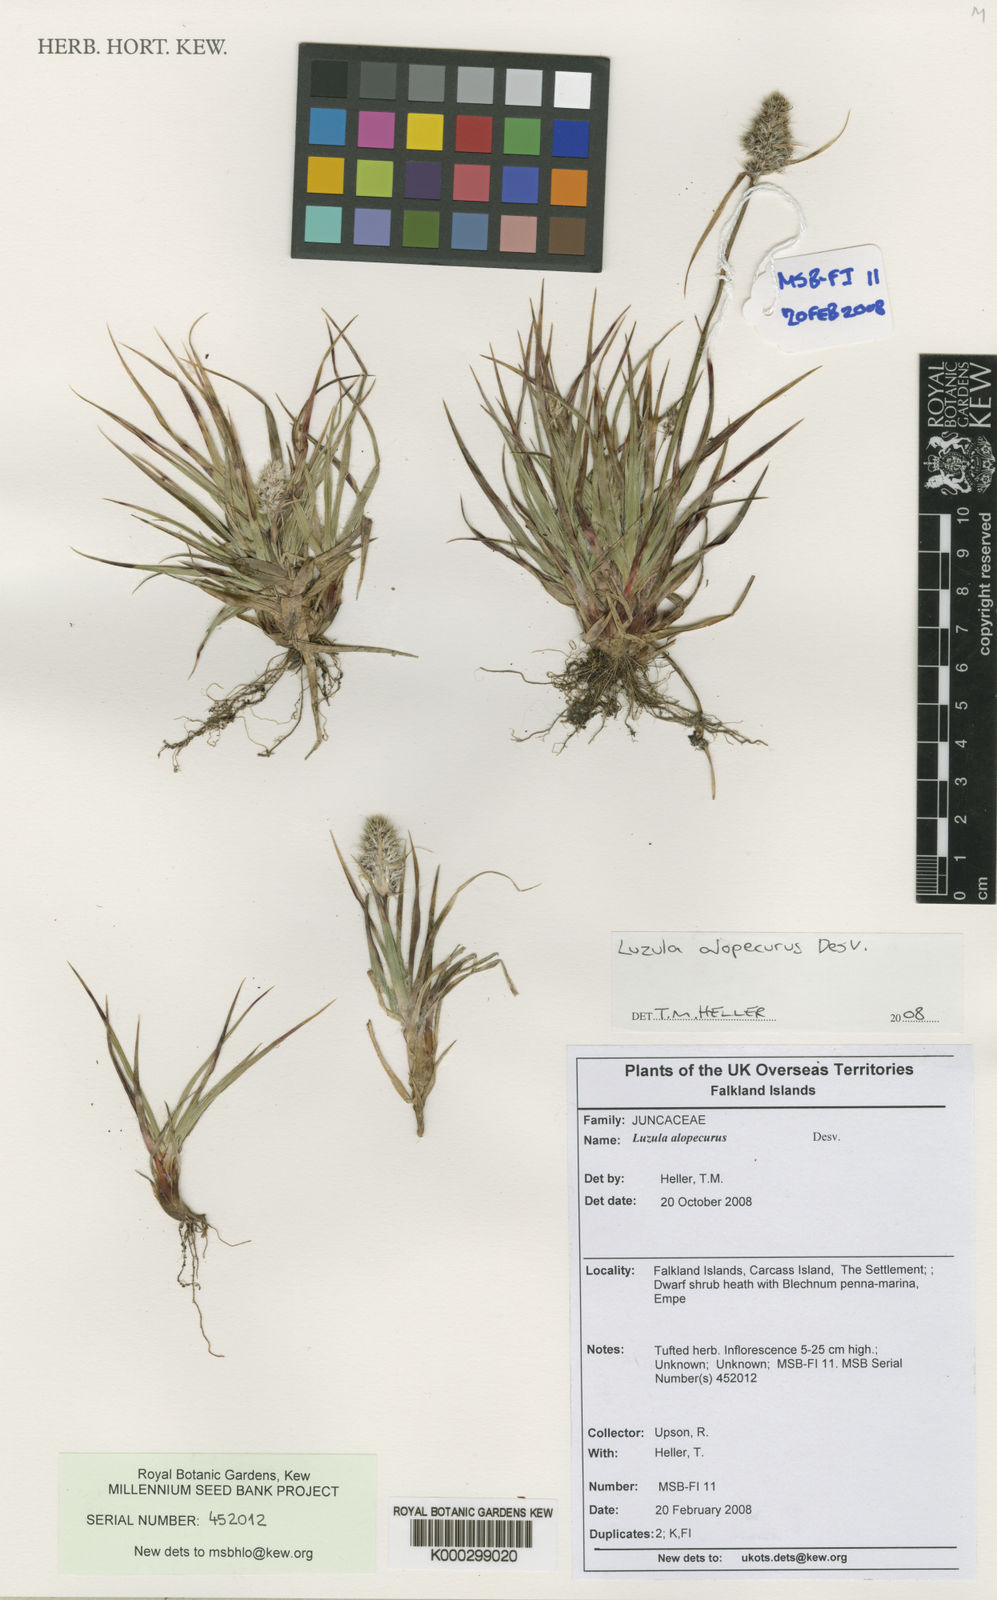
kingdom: Plantae
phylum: Tracheophyta
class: Liliopsida
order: Poales
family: Juncaceae
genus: Luzula
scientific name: Luzula alopecurus
